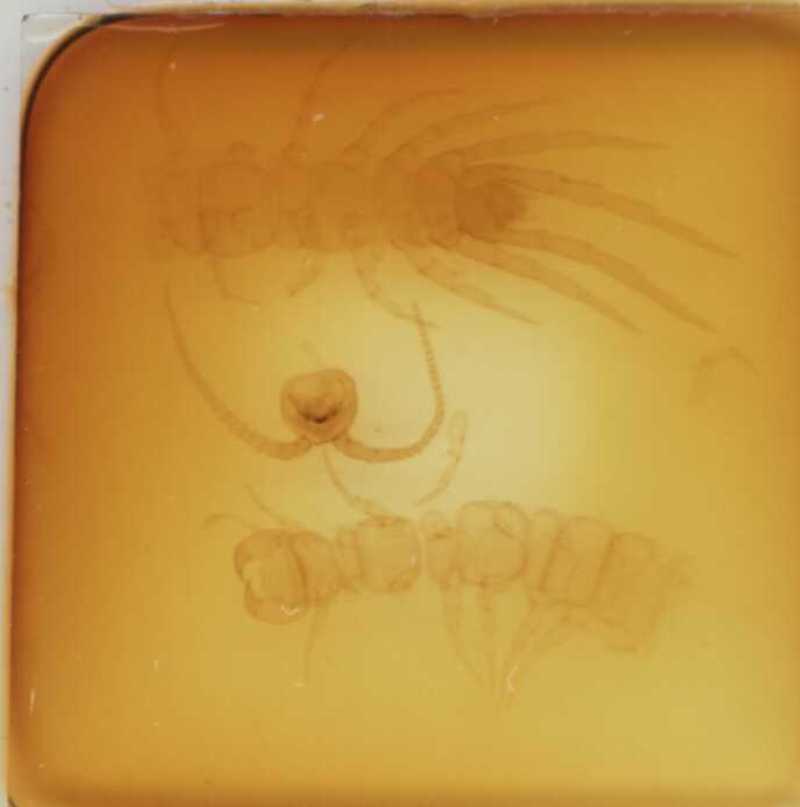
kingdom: Animalia
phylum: Arthropoda
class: Chilopoda
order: Lithobiomorpha
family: Lithobiidae
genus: Lithobius
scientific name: Lithobius erythrocephalus
